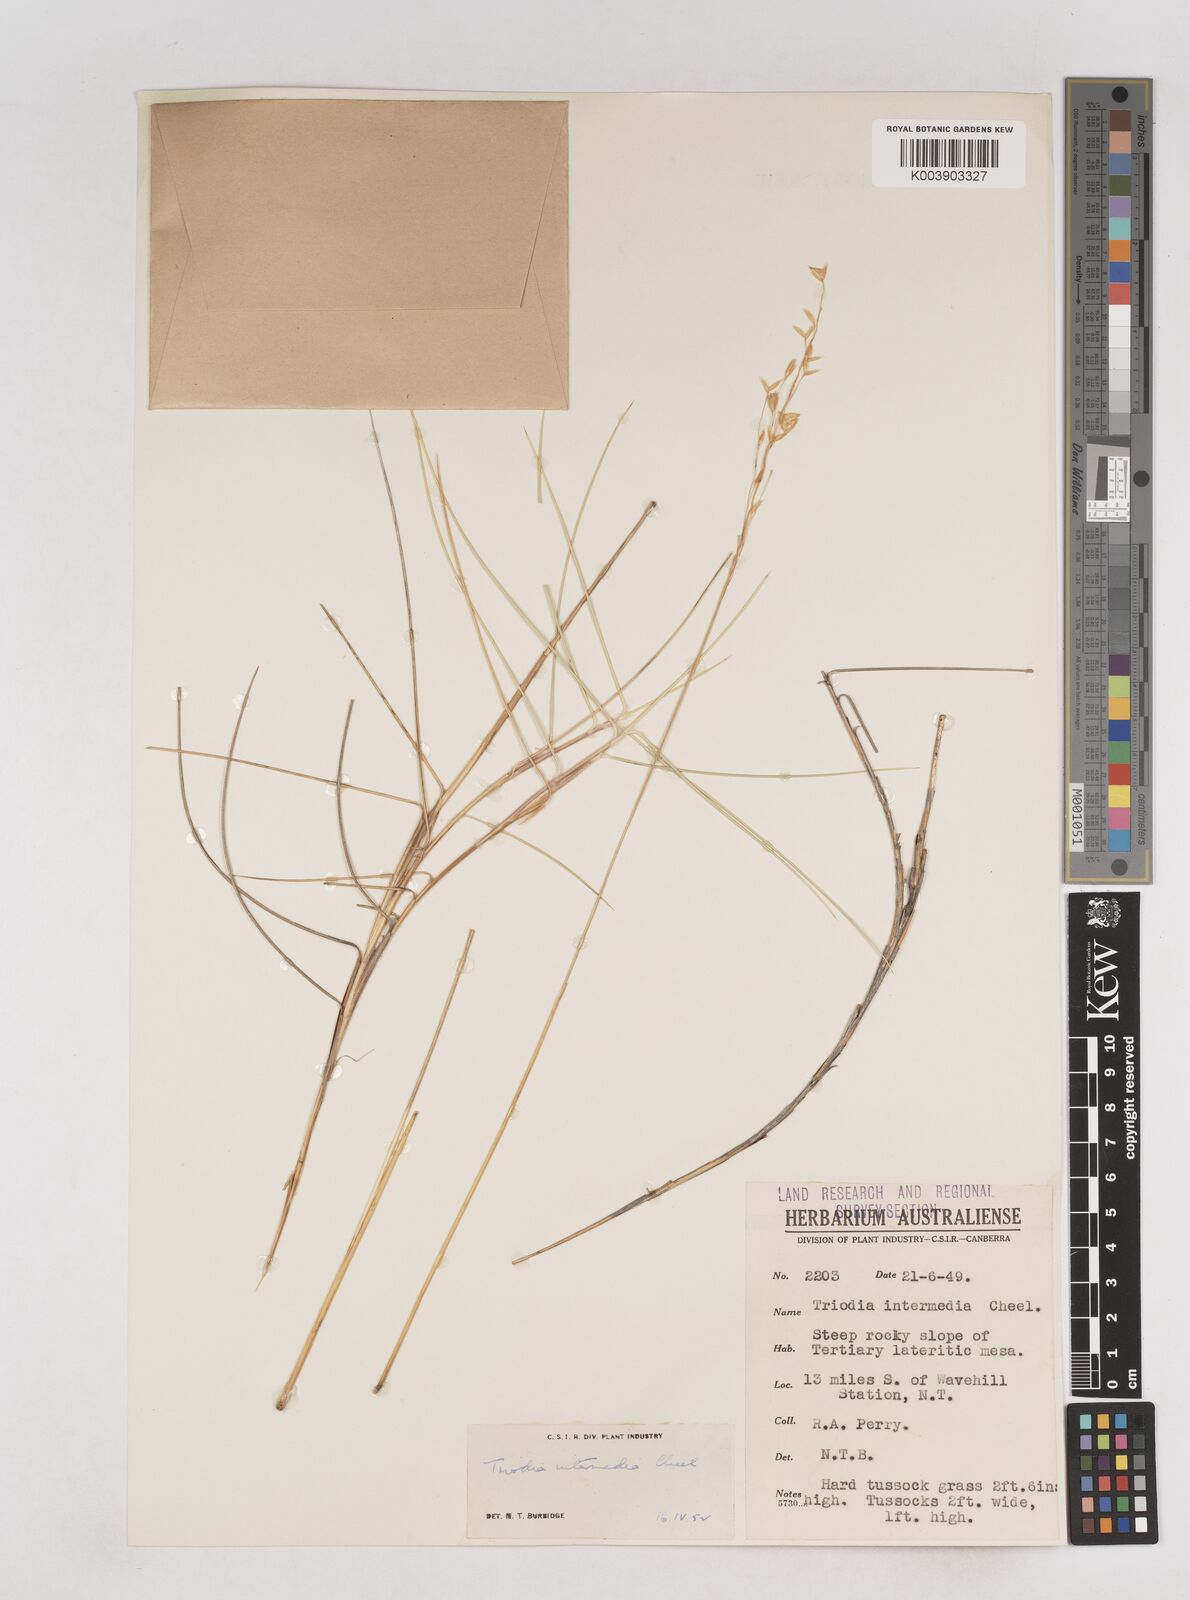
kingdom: Plantae
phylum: Tracheophyta
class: Liliopsida
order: Poales
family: Poaceae
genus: Triodia
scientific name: Triodia intermedia
